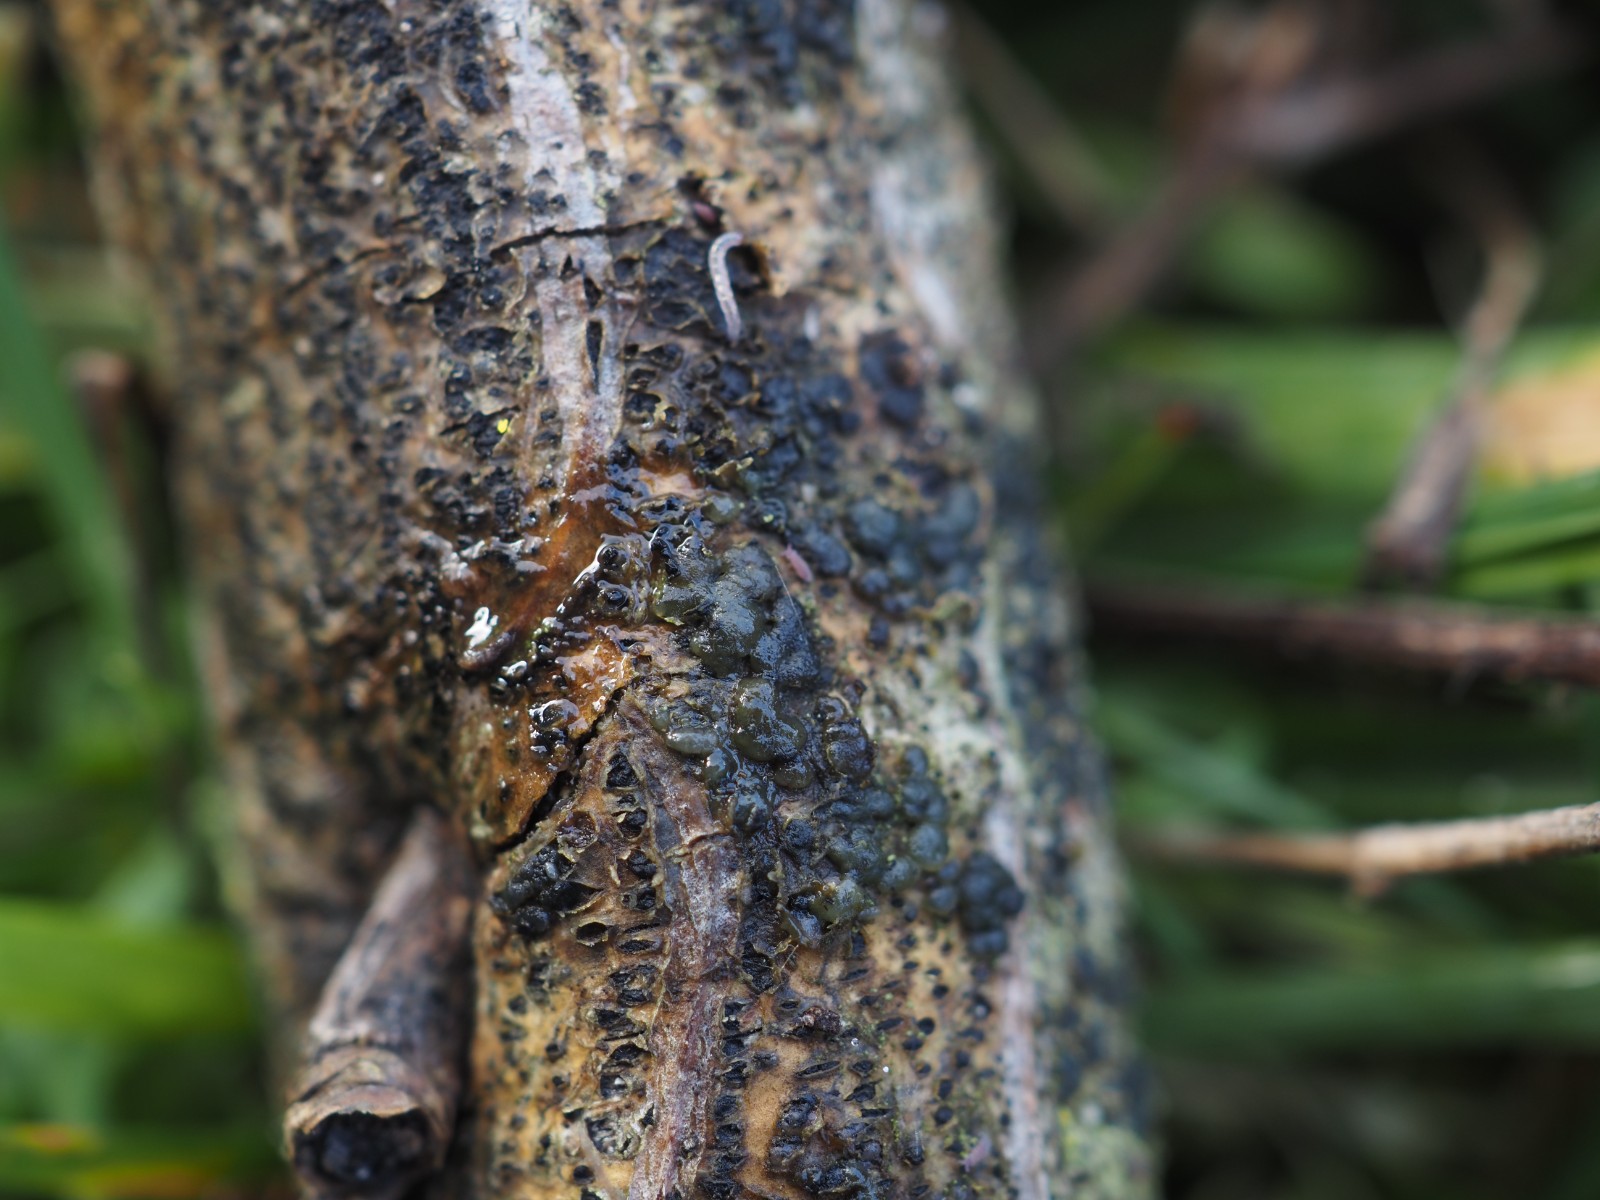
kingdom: Fungi
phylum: Basidiomycota
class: Tremellomycetes
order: Tremellales
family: Tremellaceae
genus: Tremella
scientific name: Tremella exigua
